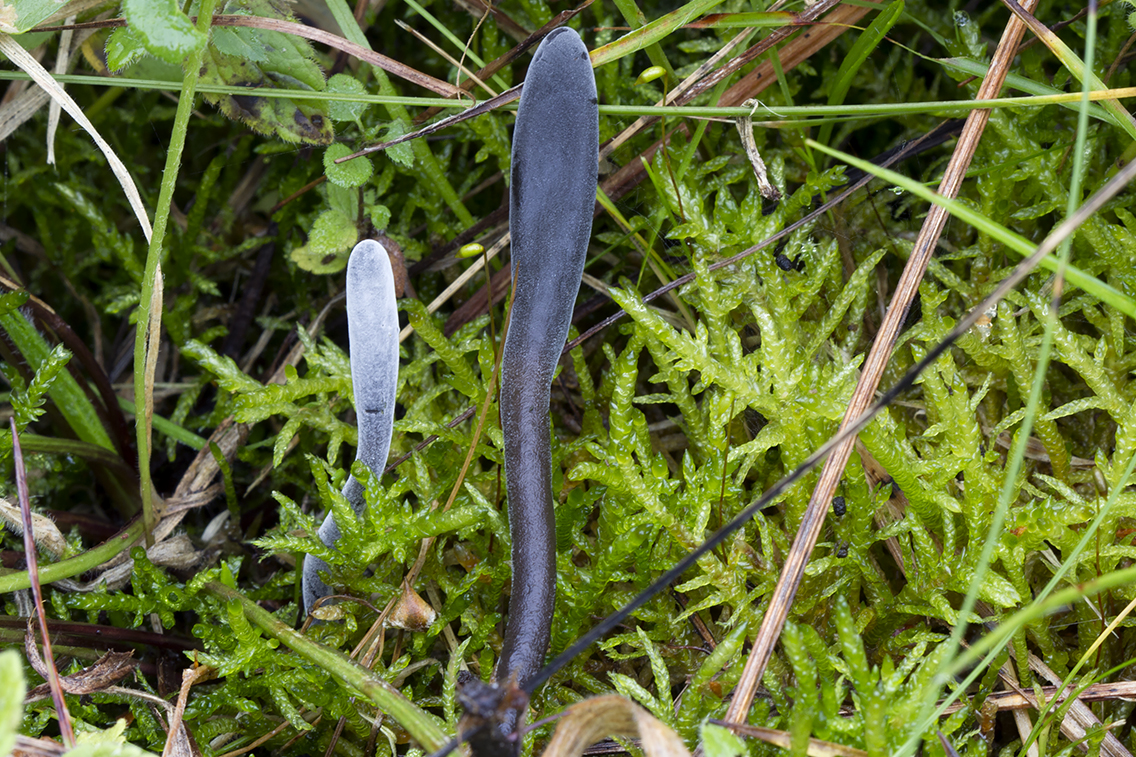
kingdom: Fungi
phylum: Ascomycota
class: Sordariomycetes
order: Hypocreales
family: Hypocreaceae
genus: Hypomyces
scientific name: Hypomyces papulasporae
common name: jordtunge-snylteskorpe
